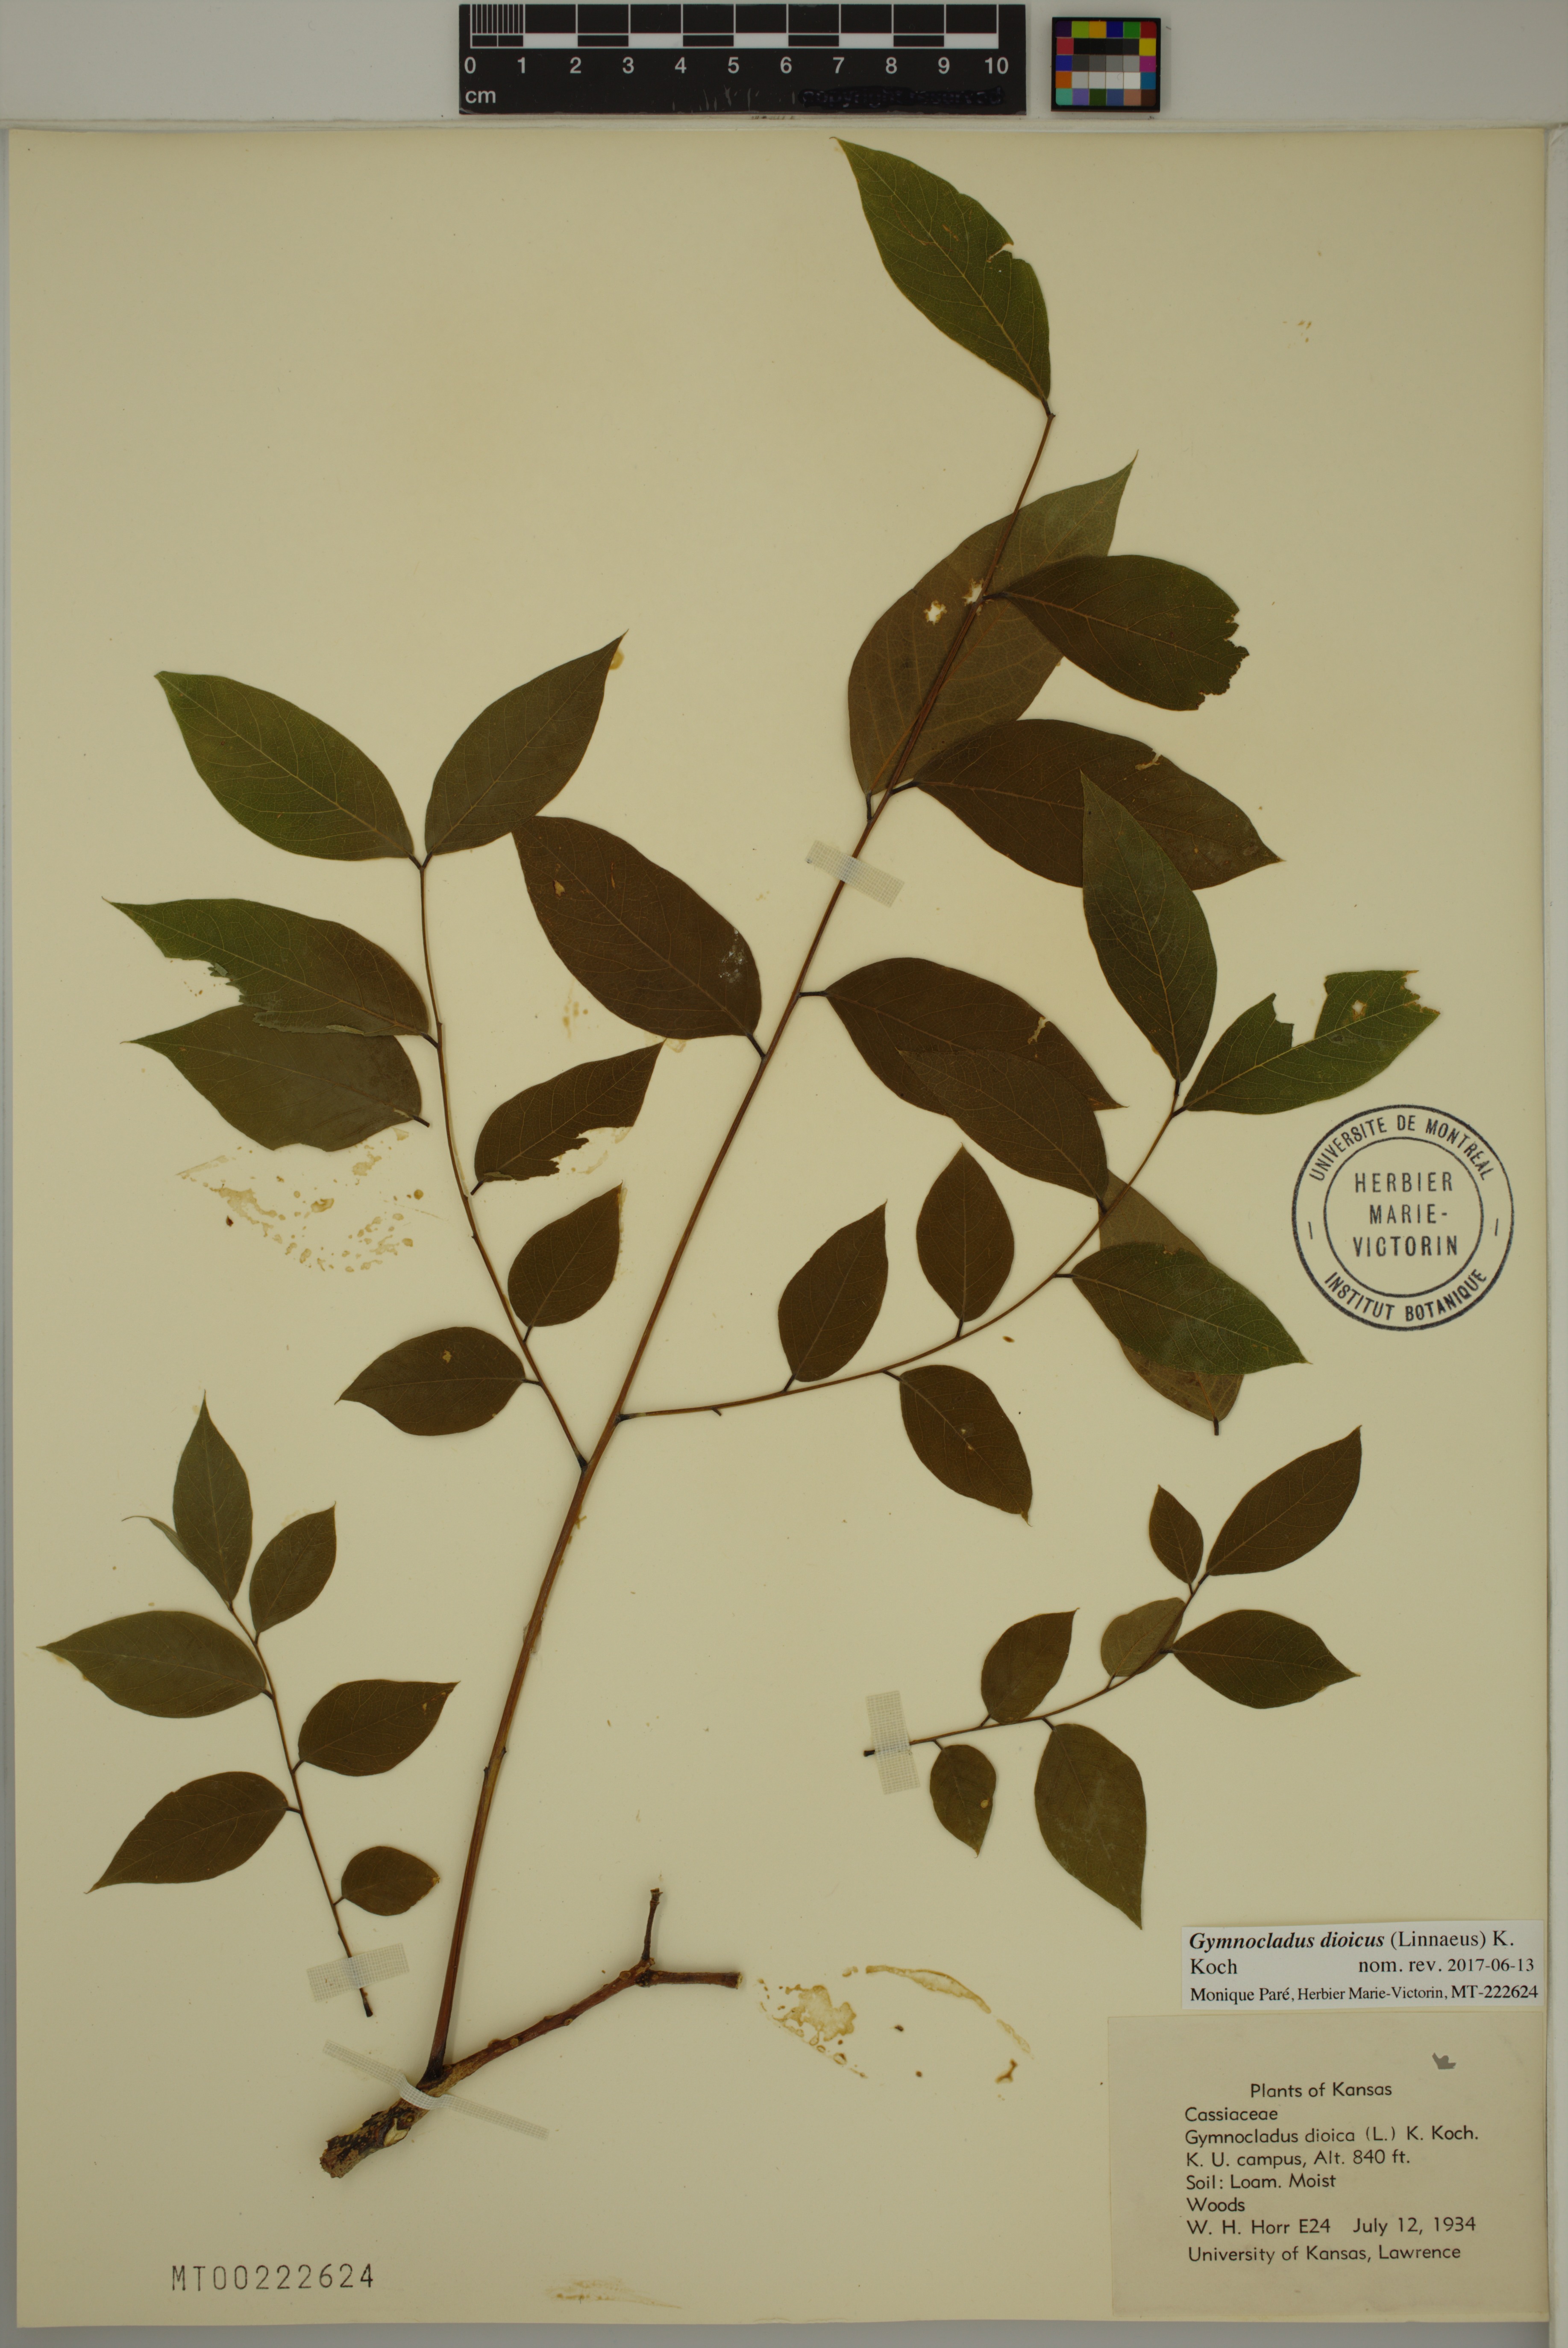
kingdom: Plantae
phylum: Tracheophyta
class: Magnoliopsida
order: Fabales
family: Fabaceae
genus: Gymnocladus
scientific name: Gymnocladus dioicus
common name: Kentucky coffee-tree
